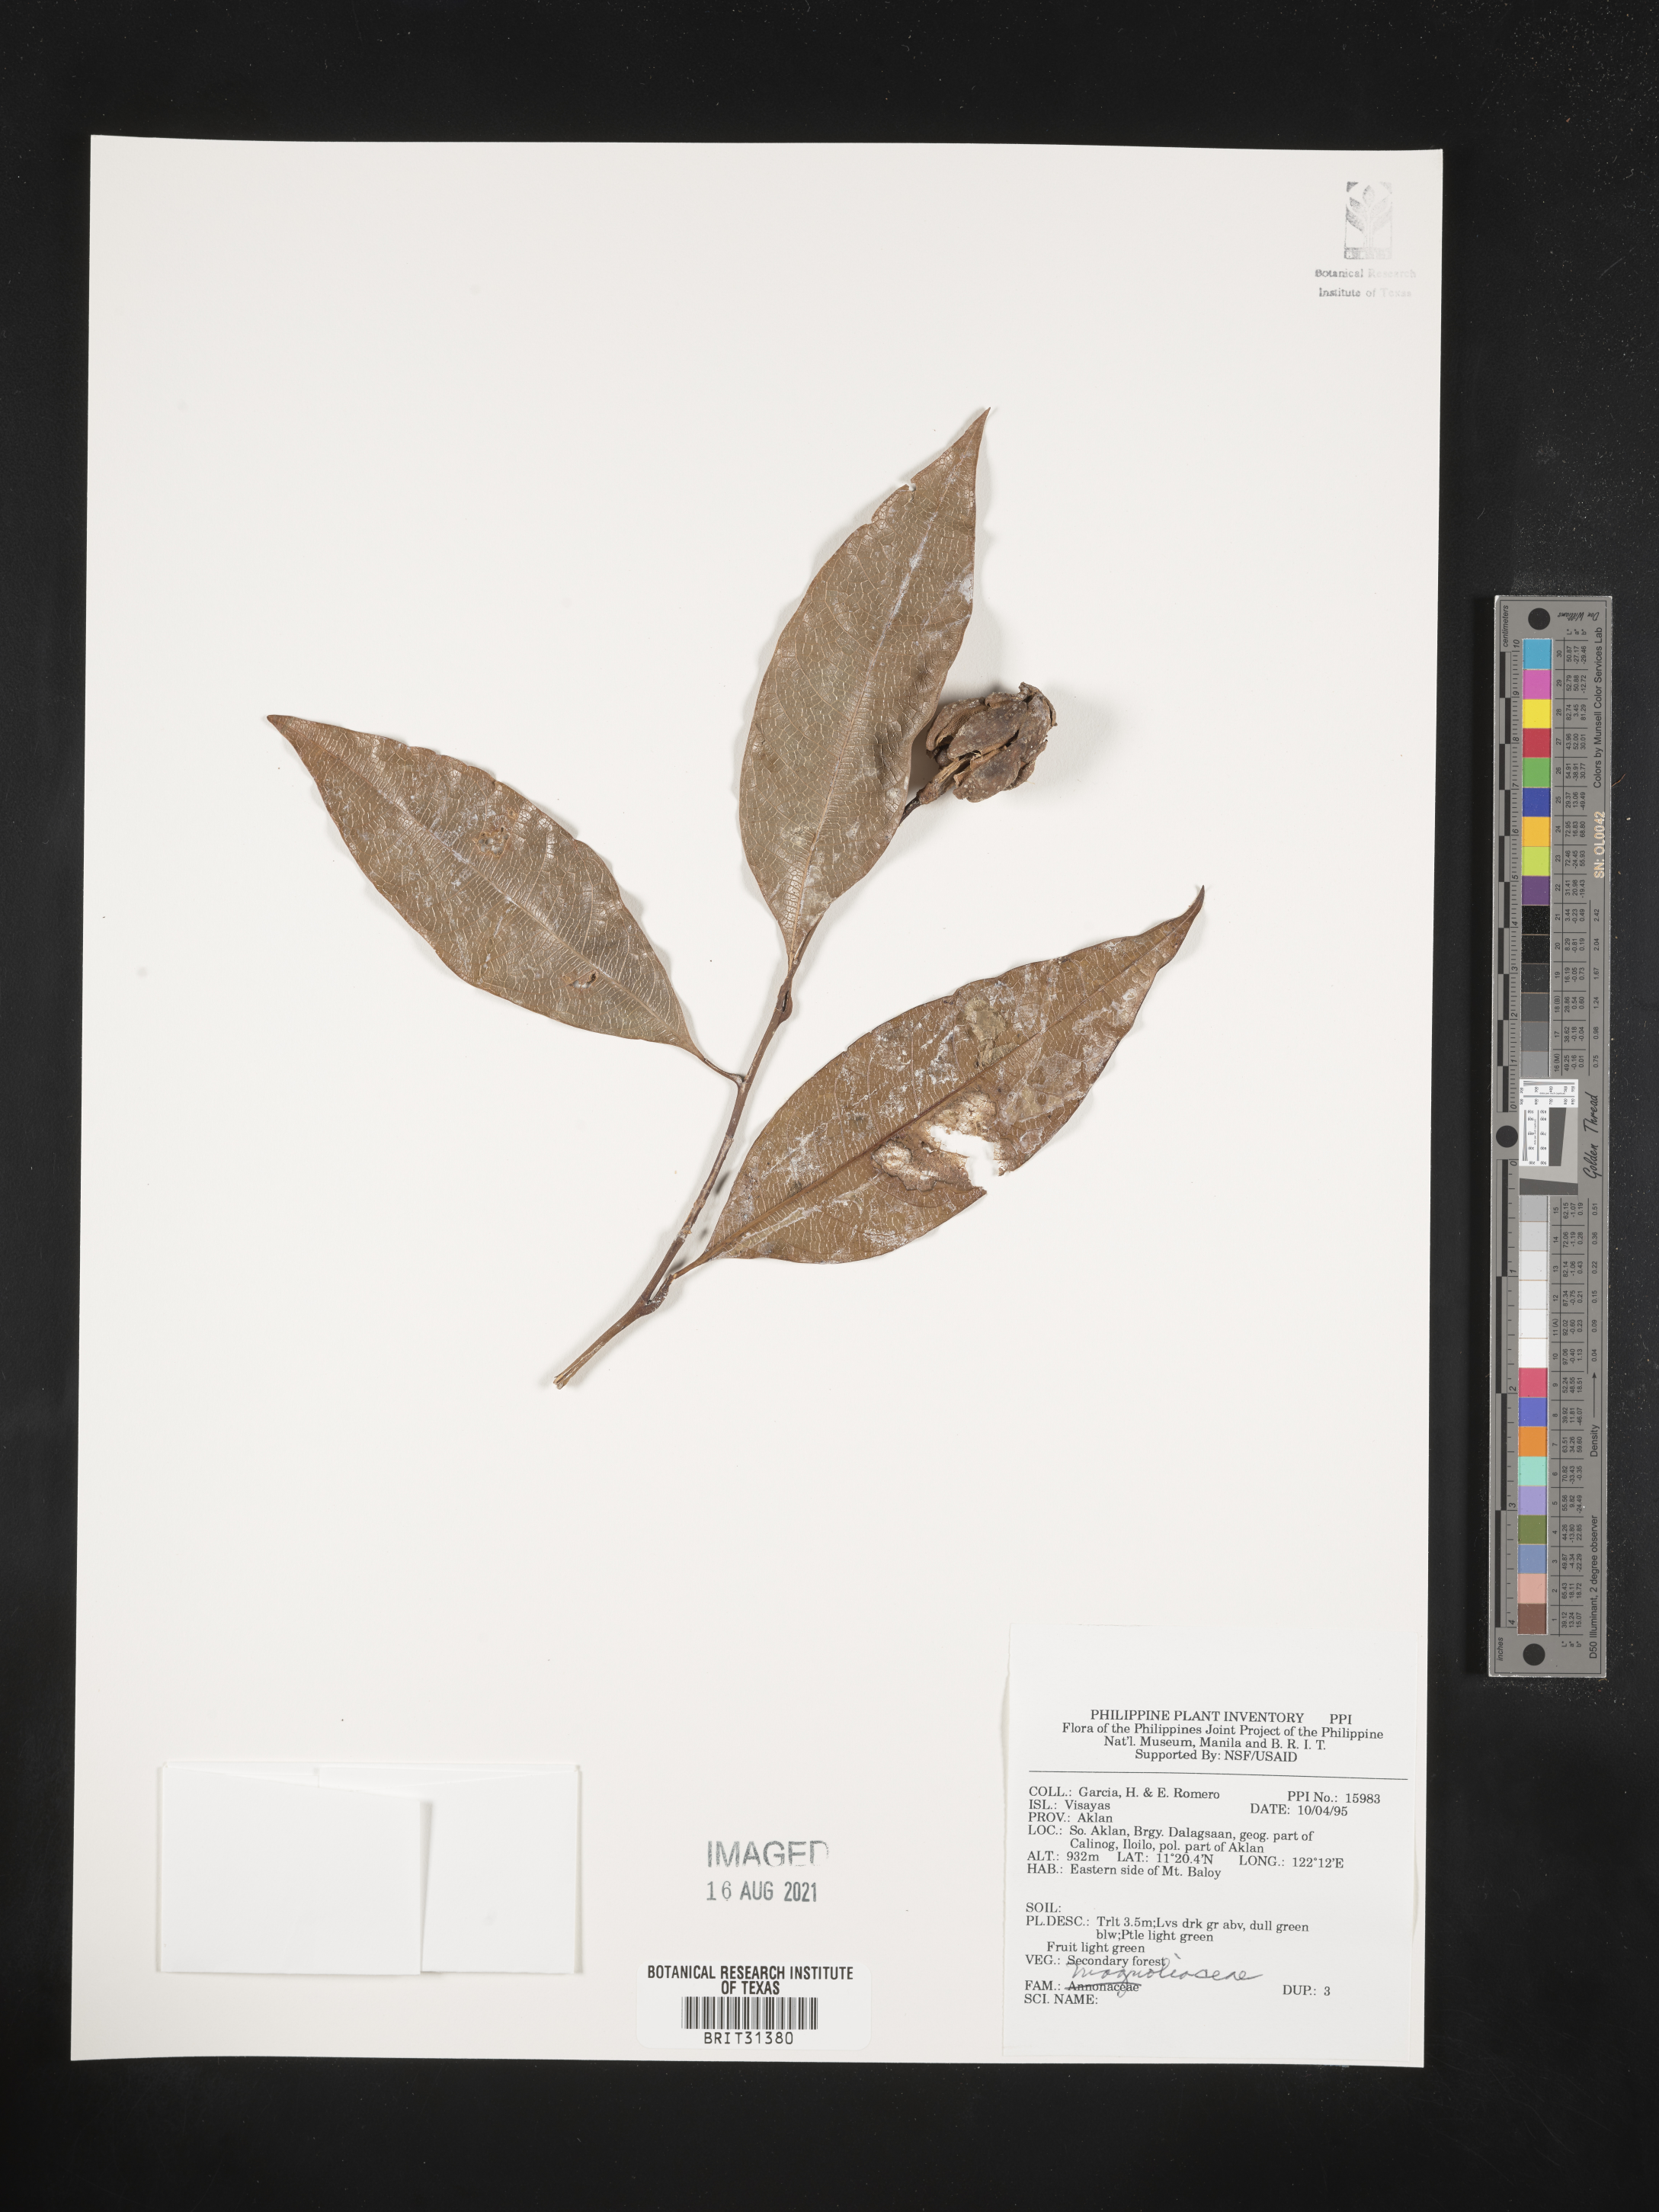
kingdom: Plantae
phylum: Tracheophyta
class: Magnoliopsida
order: Magnoliales
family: Magnoliaceae
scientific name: Magnoliaceae
